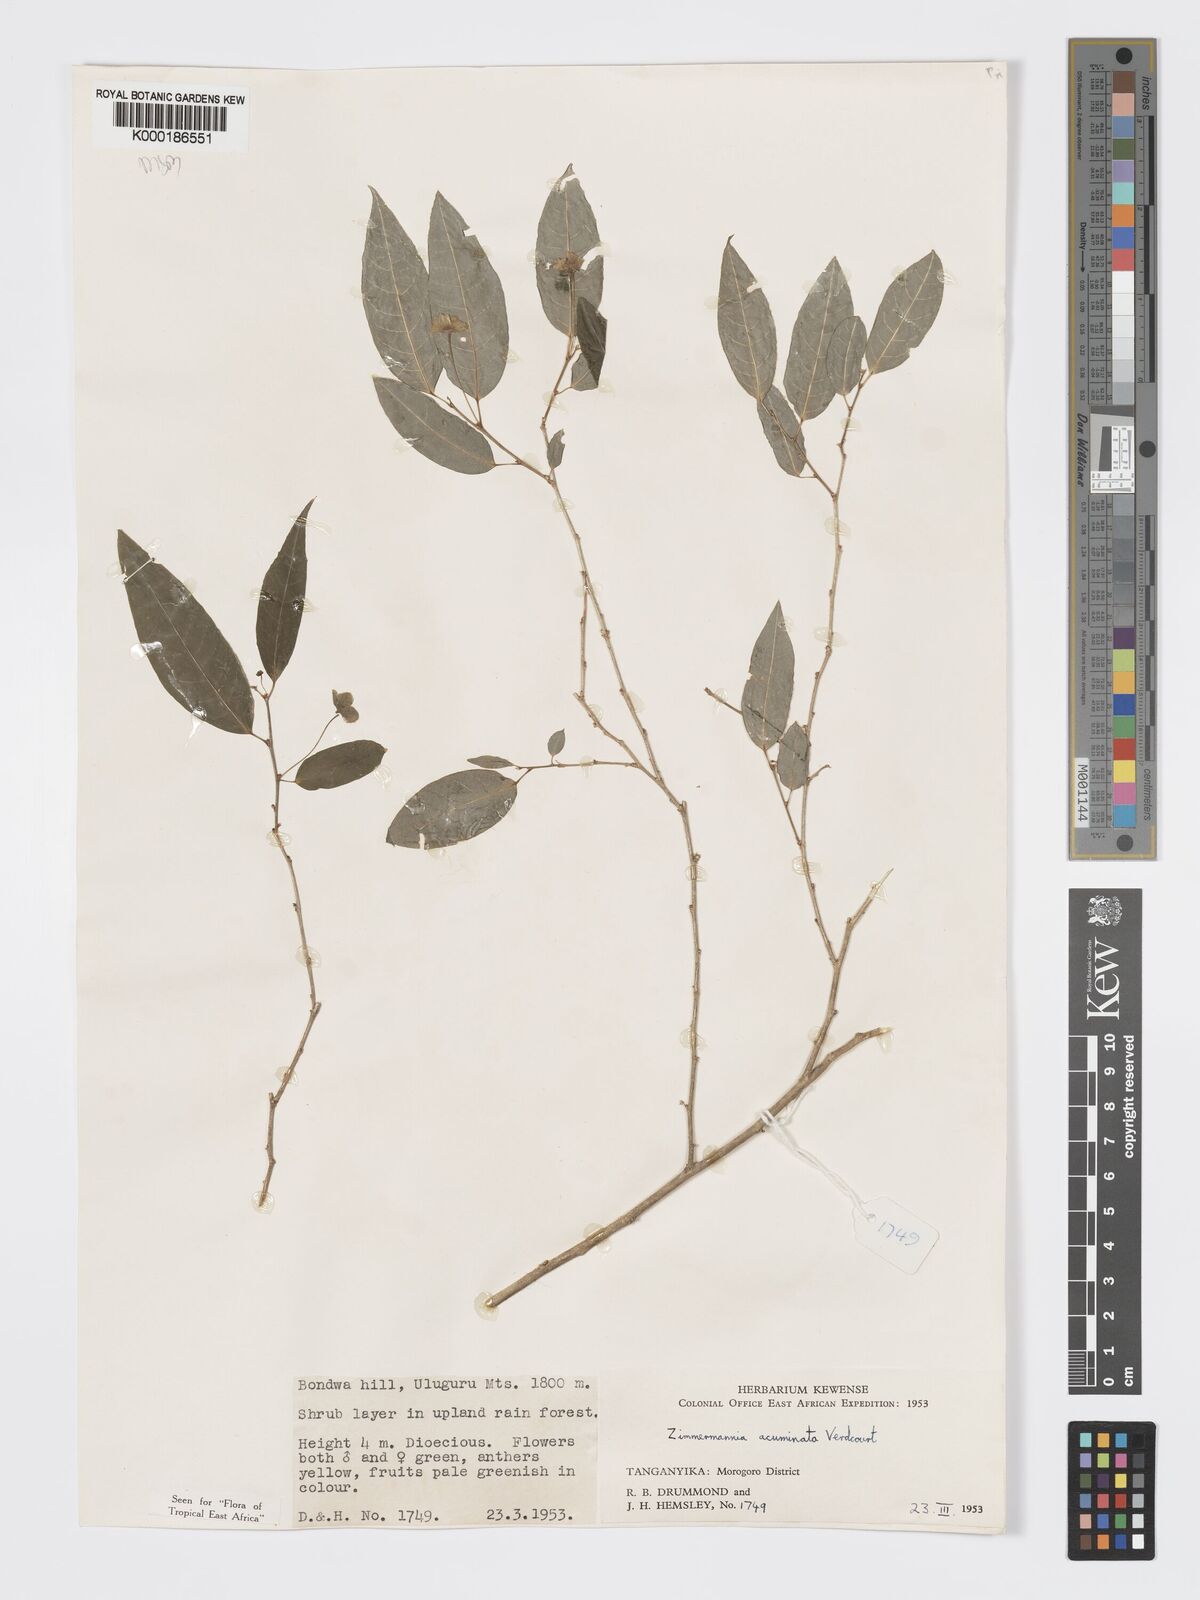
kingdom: Plantae
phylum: Tracheophyta
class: Magnoliopsida
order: Malpighiales
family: Phyllanthaceae
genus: Meineckia
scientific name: Meineckia acuminata
